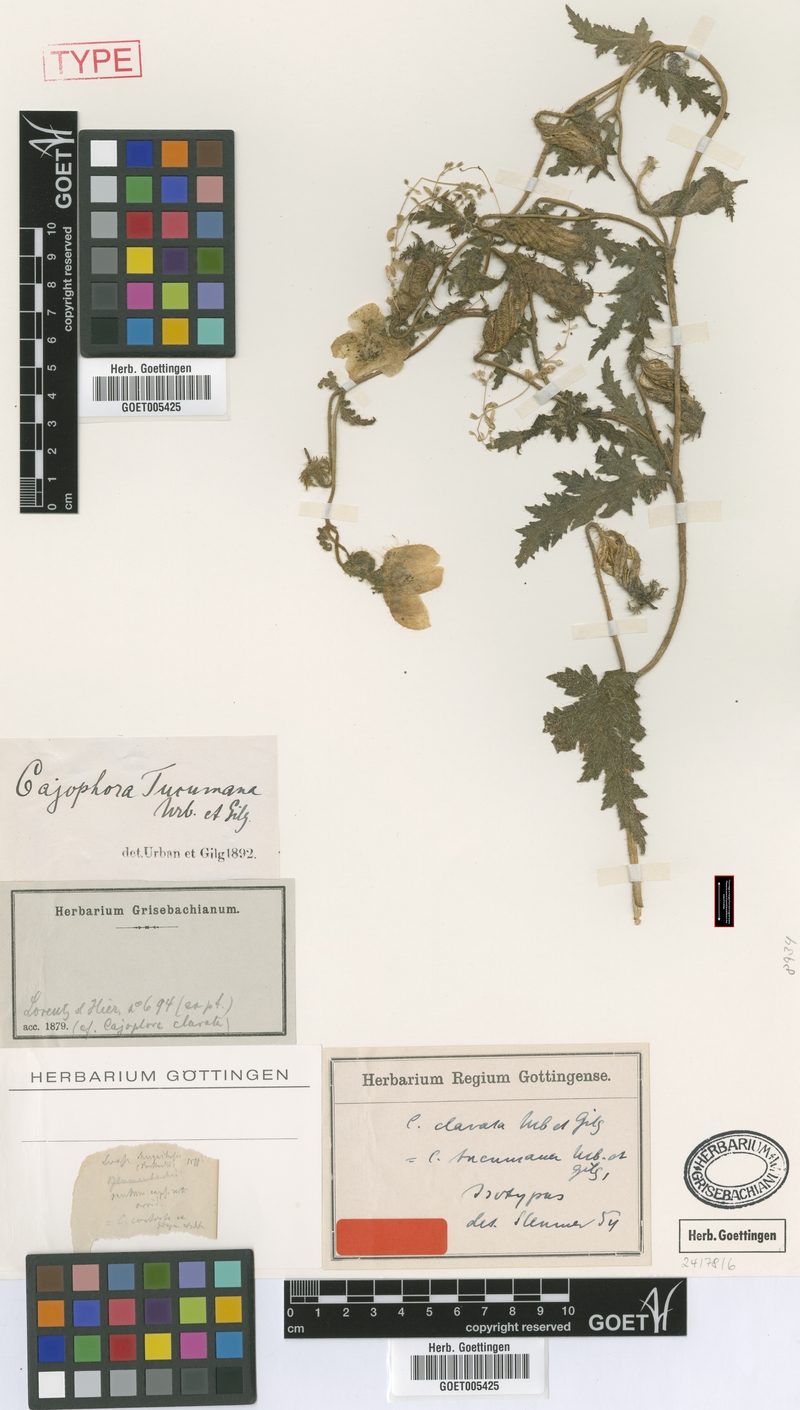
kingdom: Plantae
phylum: Tracheophyta
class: Magnoliopsida
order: Cornales
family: Loasaceae
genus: Caiophora
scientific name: Caiophora clavata
